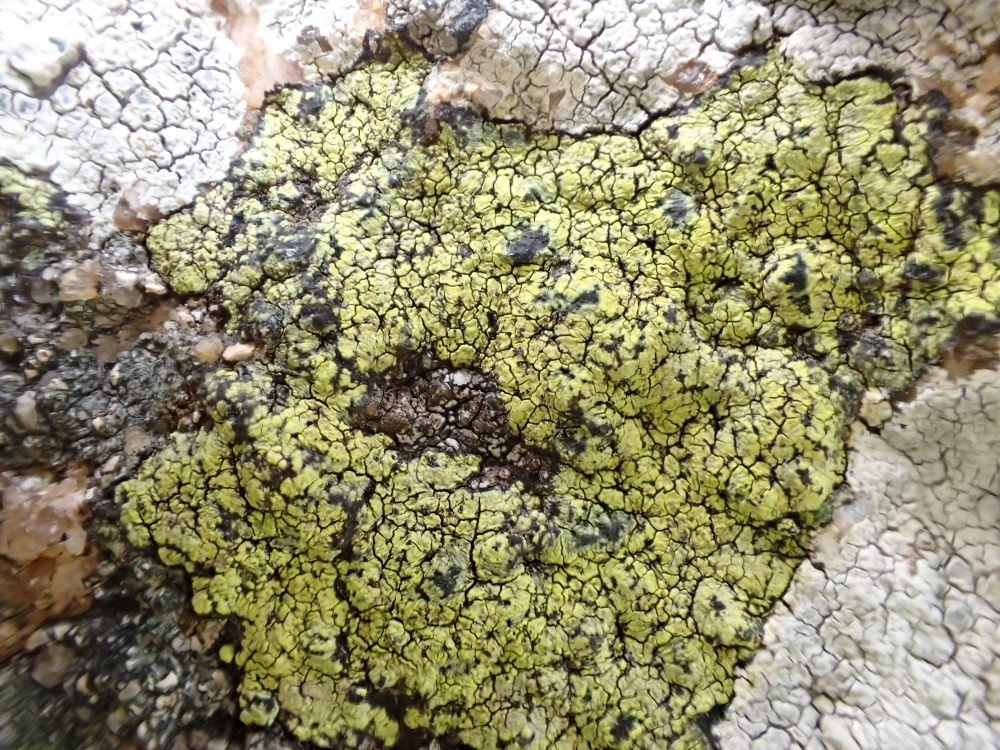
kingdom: Fungi
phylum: Ascomycota
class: Lecanoromycetes
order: Rhizocarpales
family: Rhizocarpaceae
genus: Rhizocarpon
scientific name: Rhizocarpon geographicum
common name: gulgrøn landkortlav
